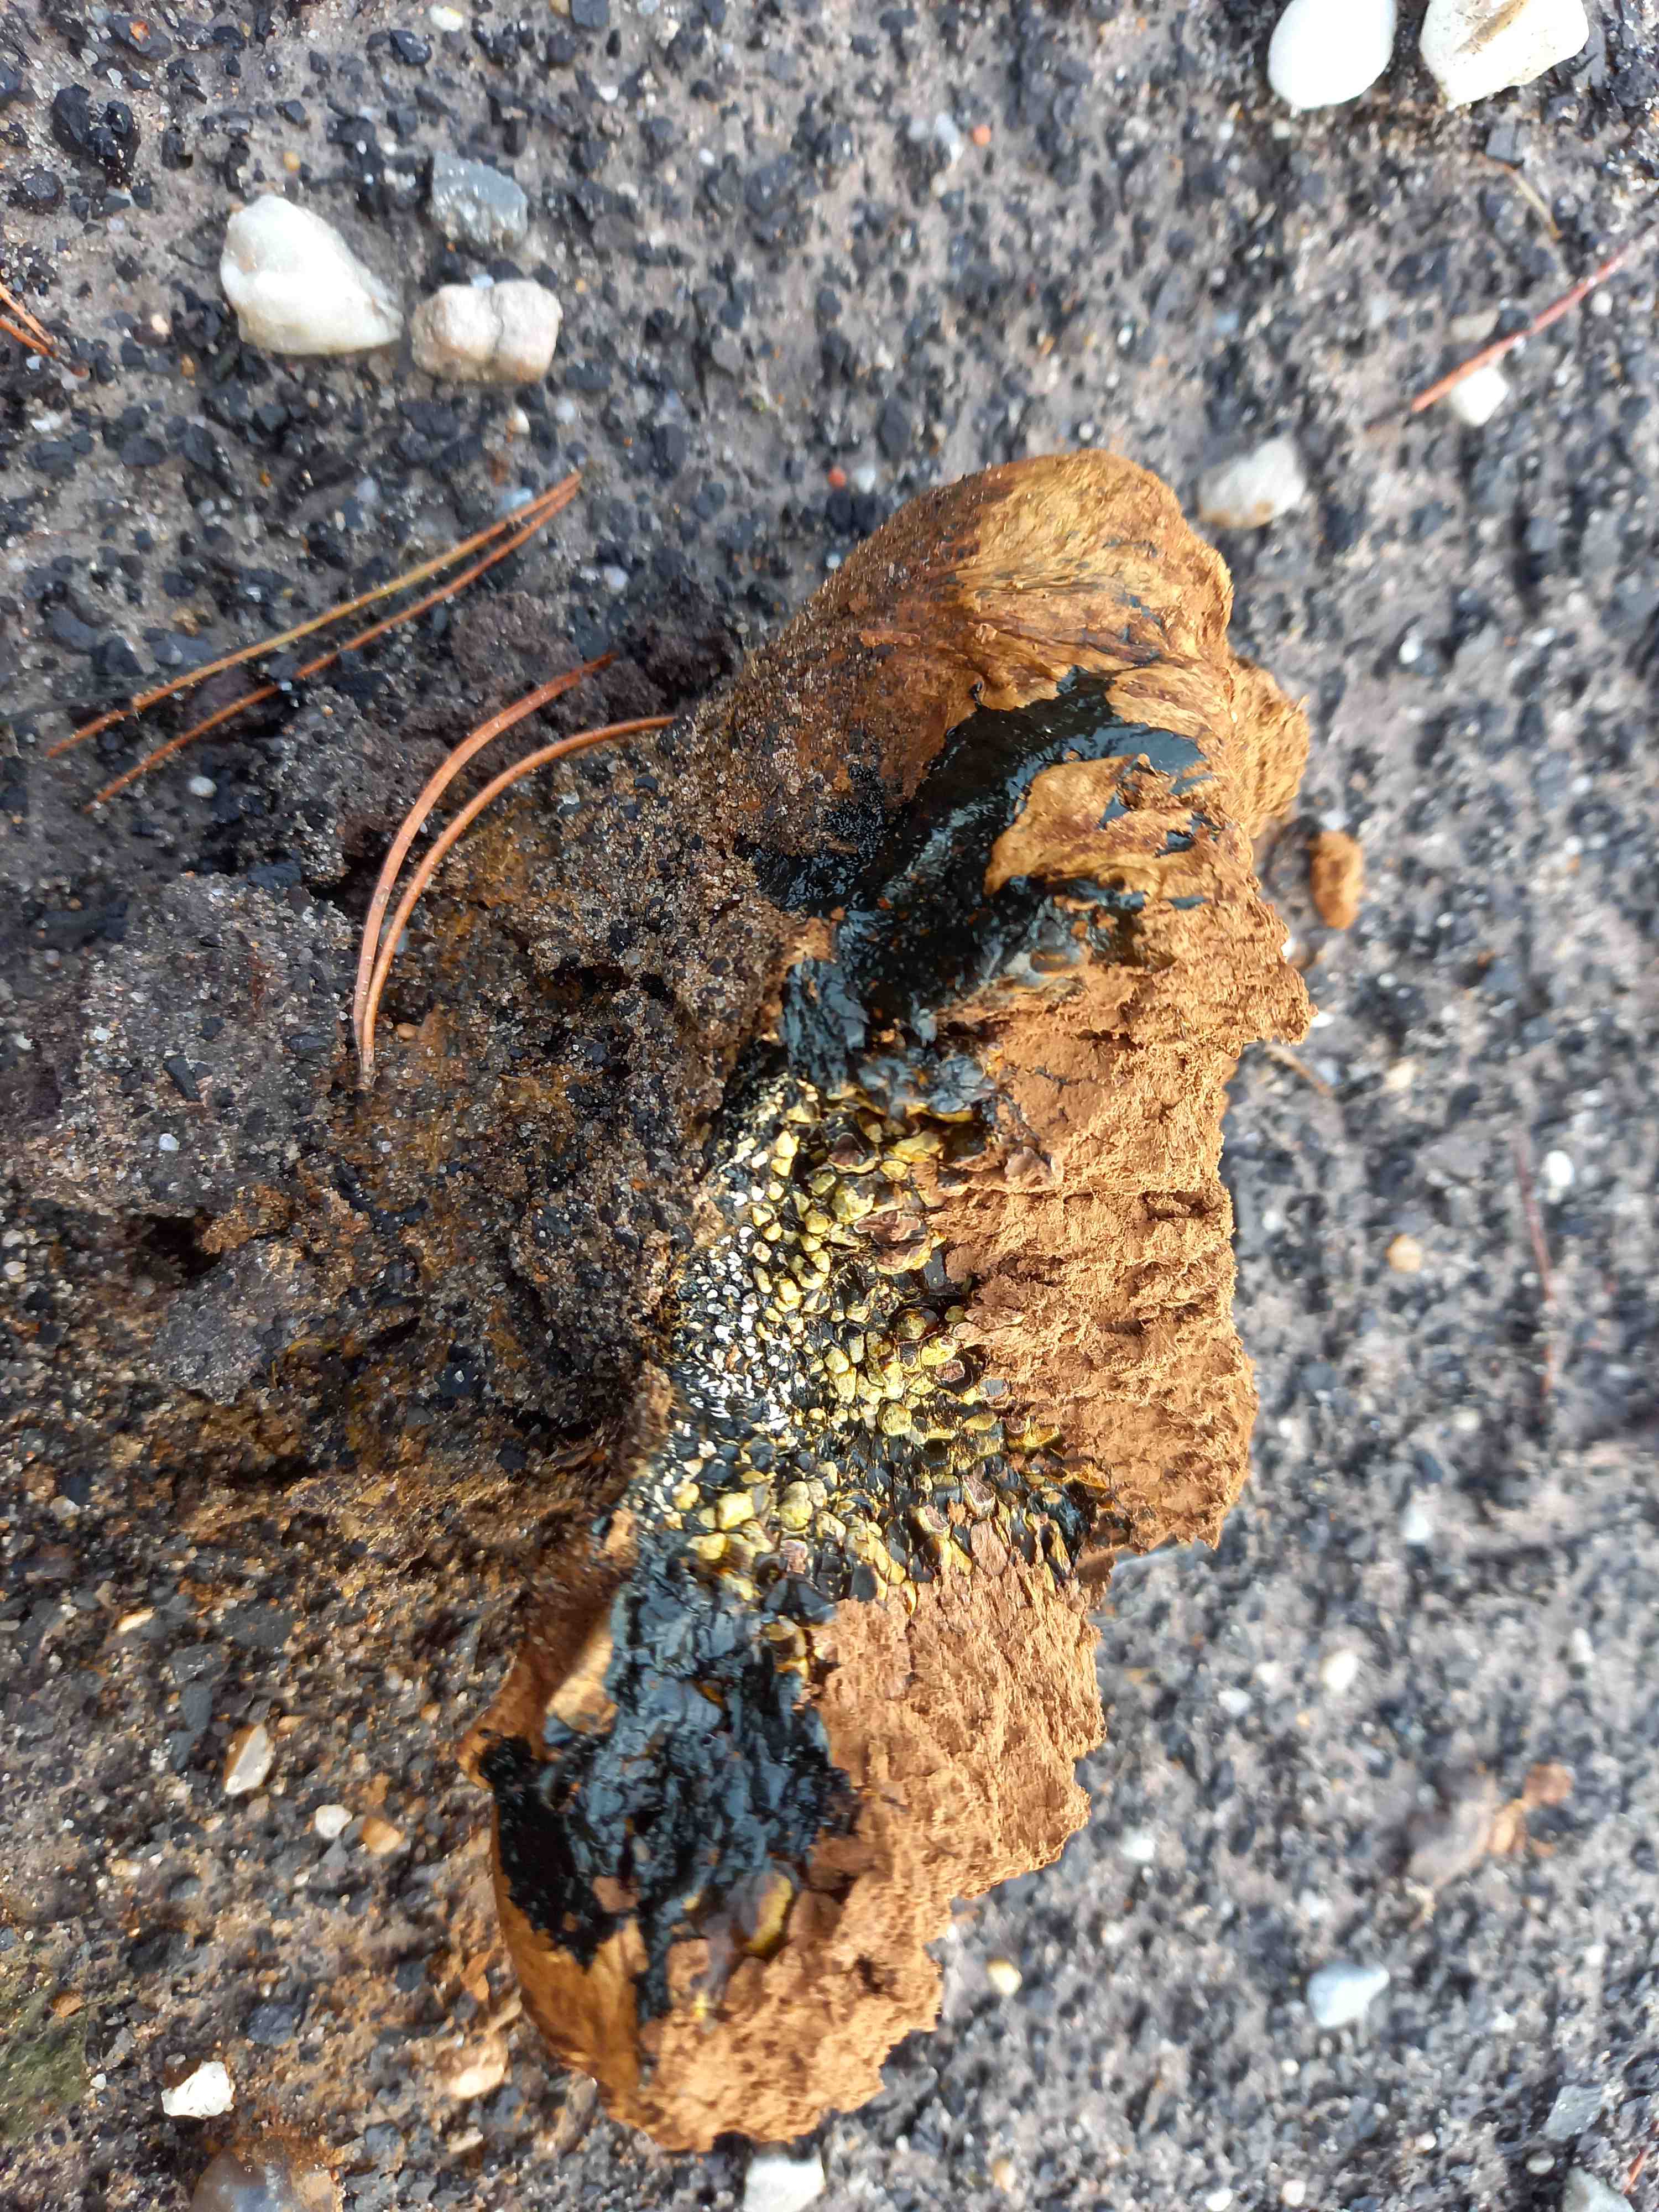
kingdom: Fungi
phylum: Basidiomycota
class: Agaricomycetes
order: Boletales
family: Sclerodermataceae
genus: Pisolithus
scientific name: Pisolithus capsulifer
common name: farvebold
